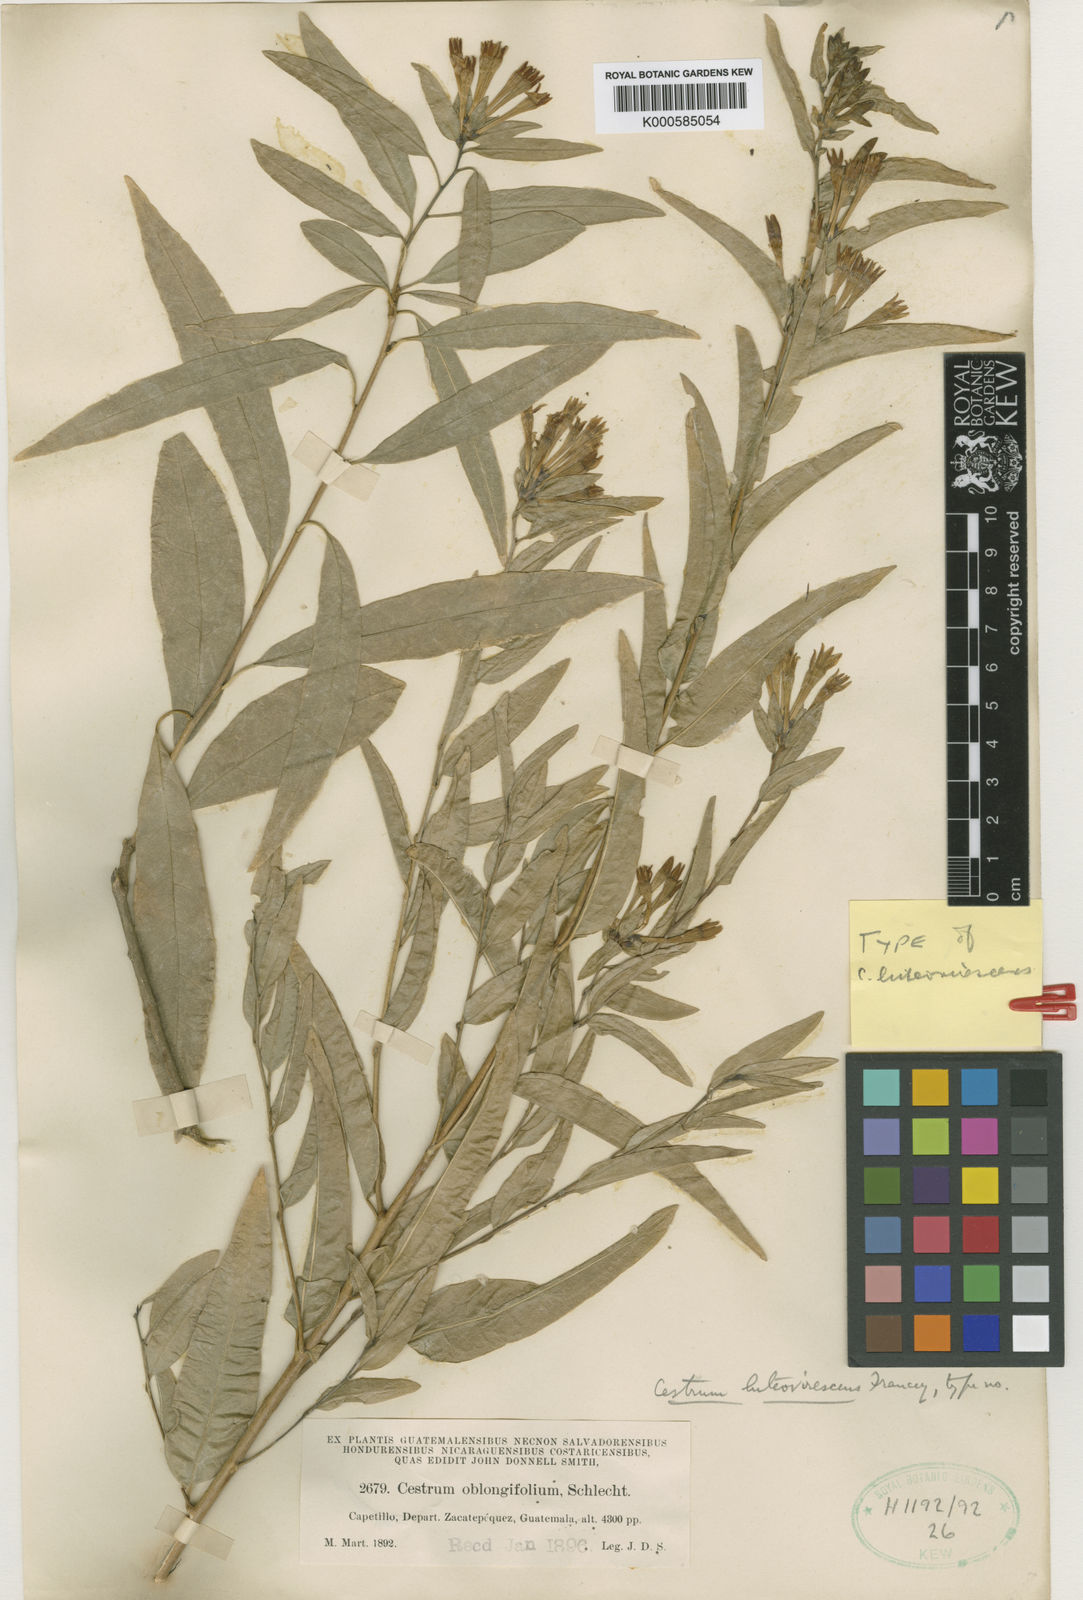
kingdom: Plantae
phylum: Tracheophyta
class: Magnoliopsida
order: Solanales
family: Solanaceae
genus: Cestrum
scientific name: Cestrum luteovirescens
